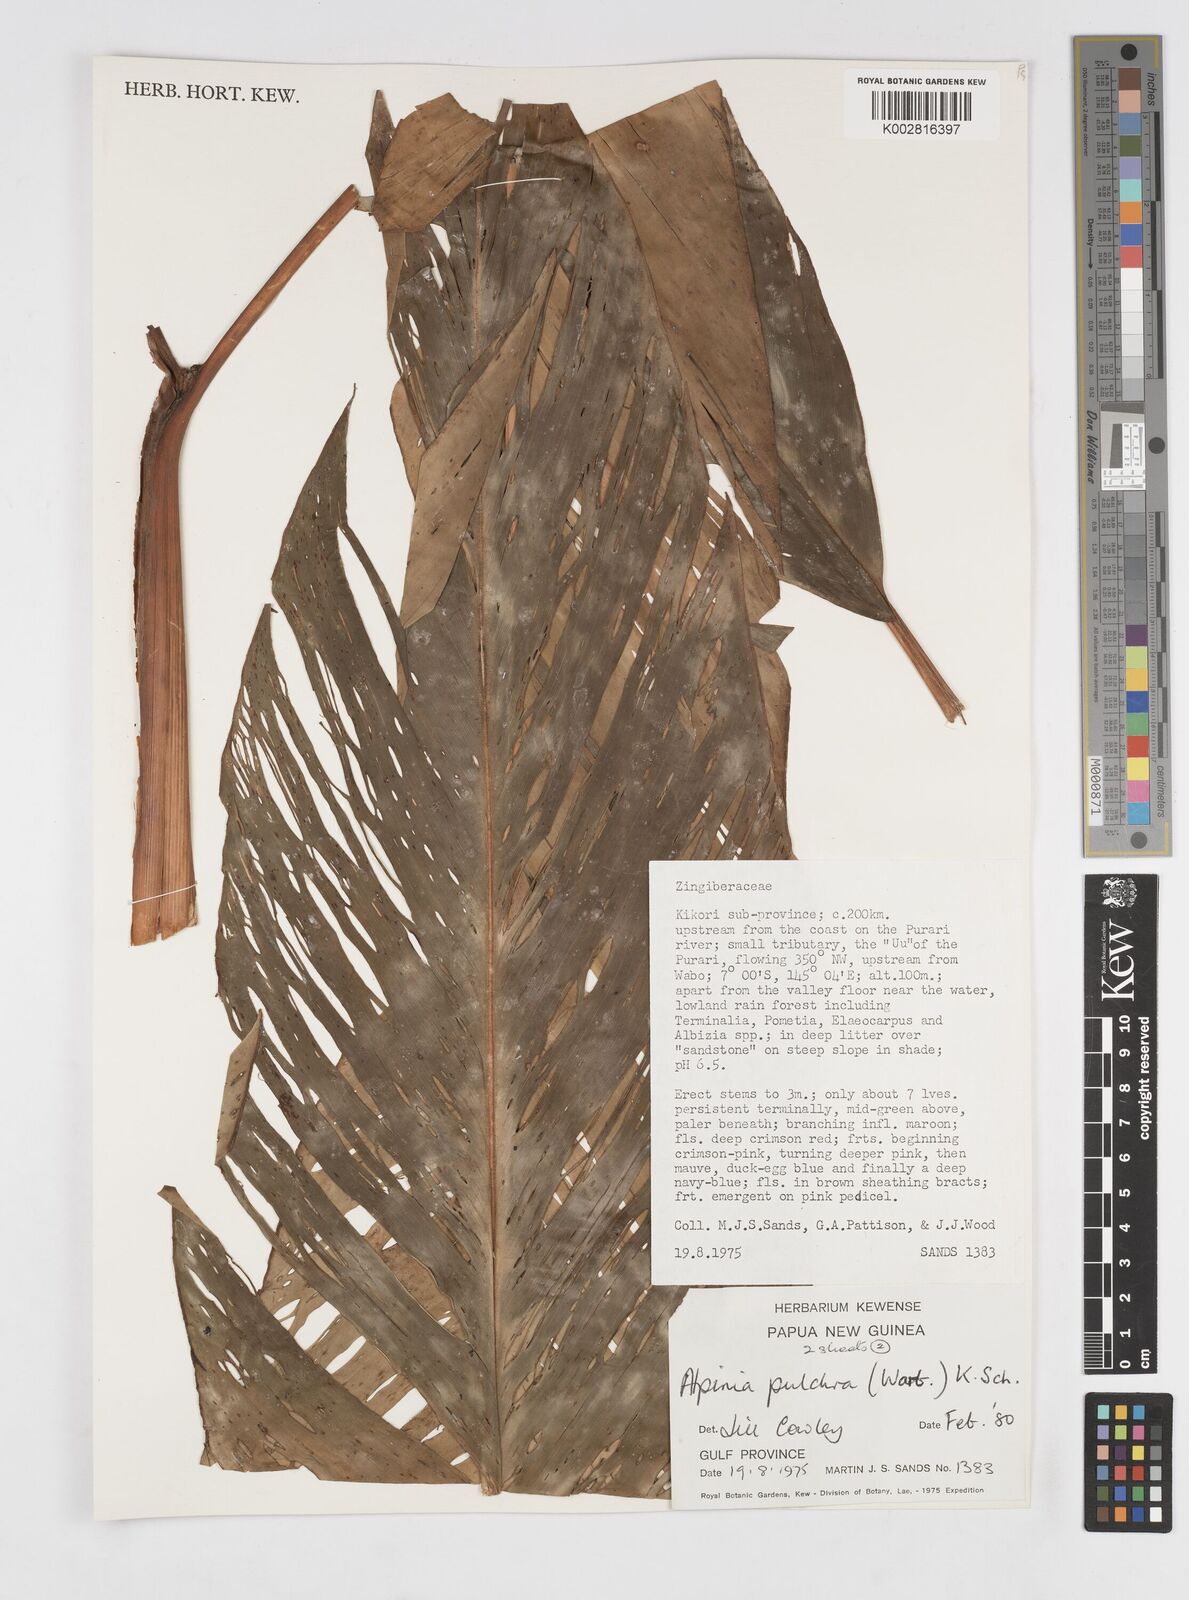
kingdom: Plantae
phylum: Tracheophyta
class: Liliopsida
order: Zingiberales
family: Zingiberaceae
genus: Alpinia
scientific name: Alpinia pulchra
